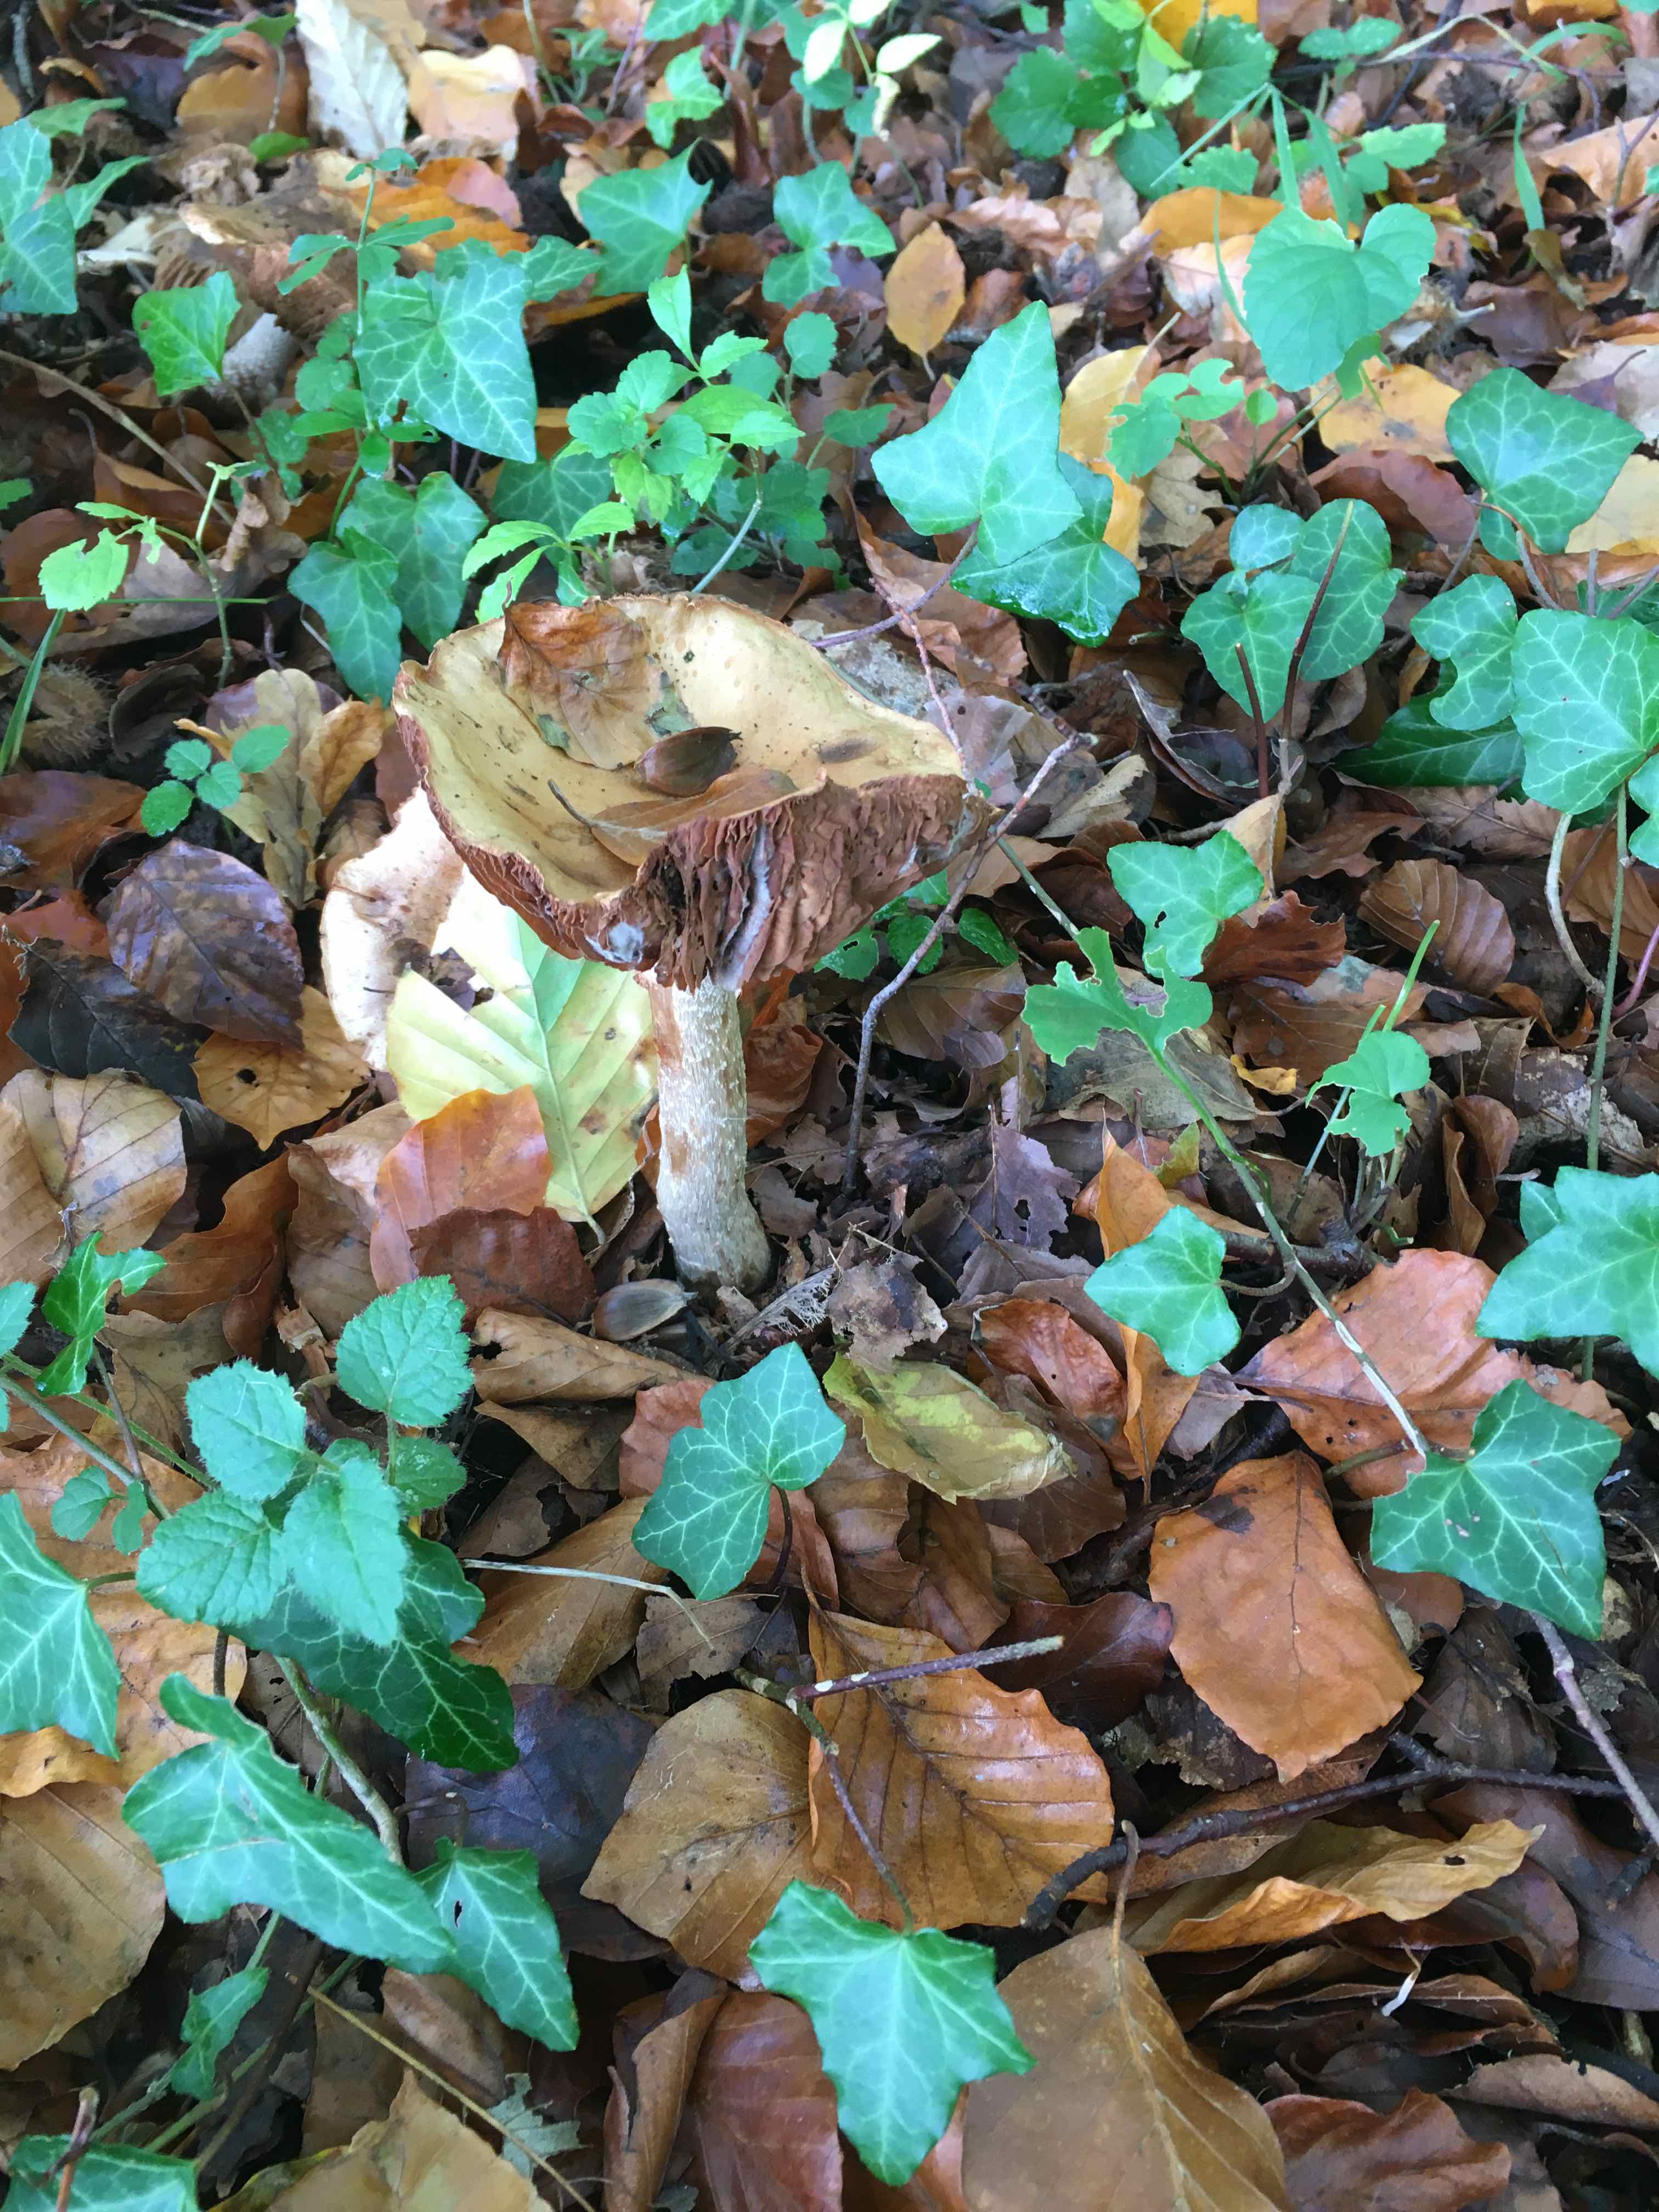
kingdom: Fungi
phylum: Basidiomycota
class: Agaricomycetes
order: Agaricales
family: Strophariaceae
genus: Stropharia
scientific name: Stropharia
